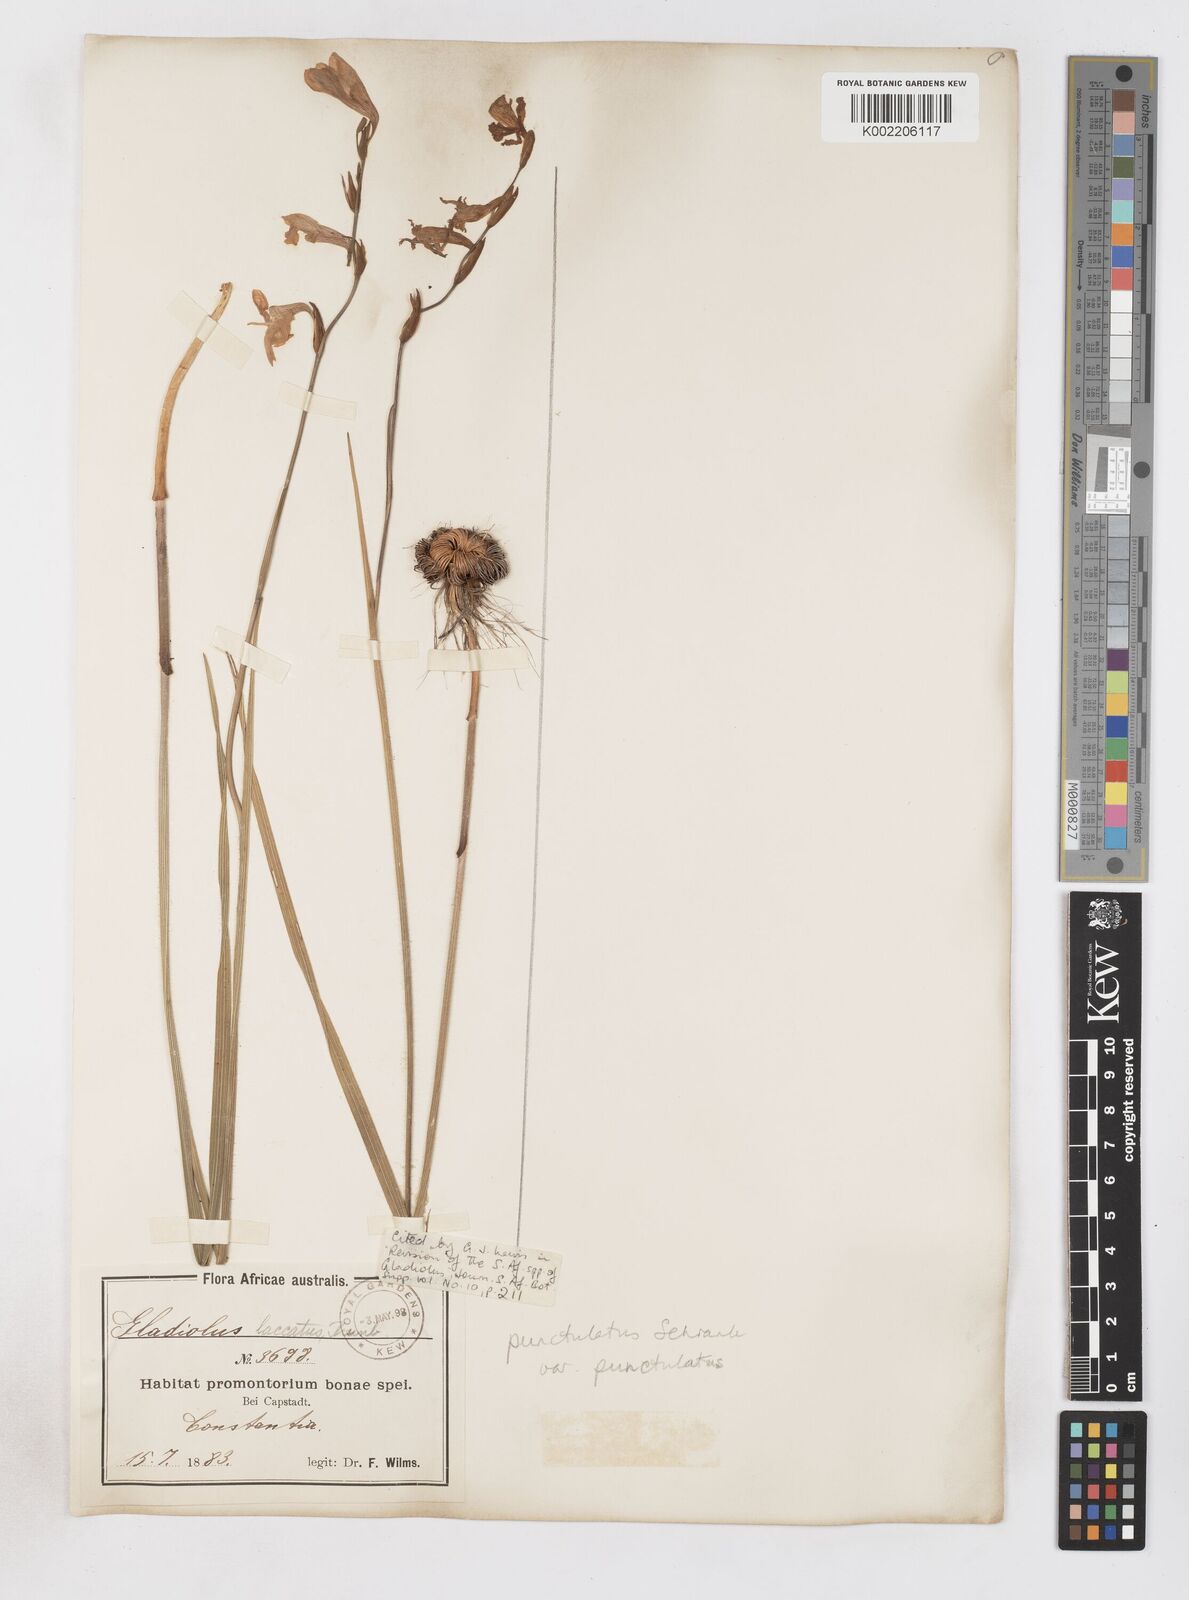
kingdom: Plantae
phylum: Tracheophyta
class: Liliopsida
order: Asparagales
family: Iridaceae
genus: Gladiolus
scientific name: Gladiolus hirsutus
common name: Small pink afrikaner
